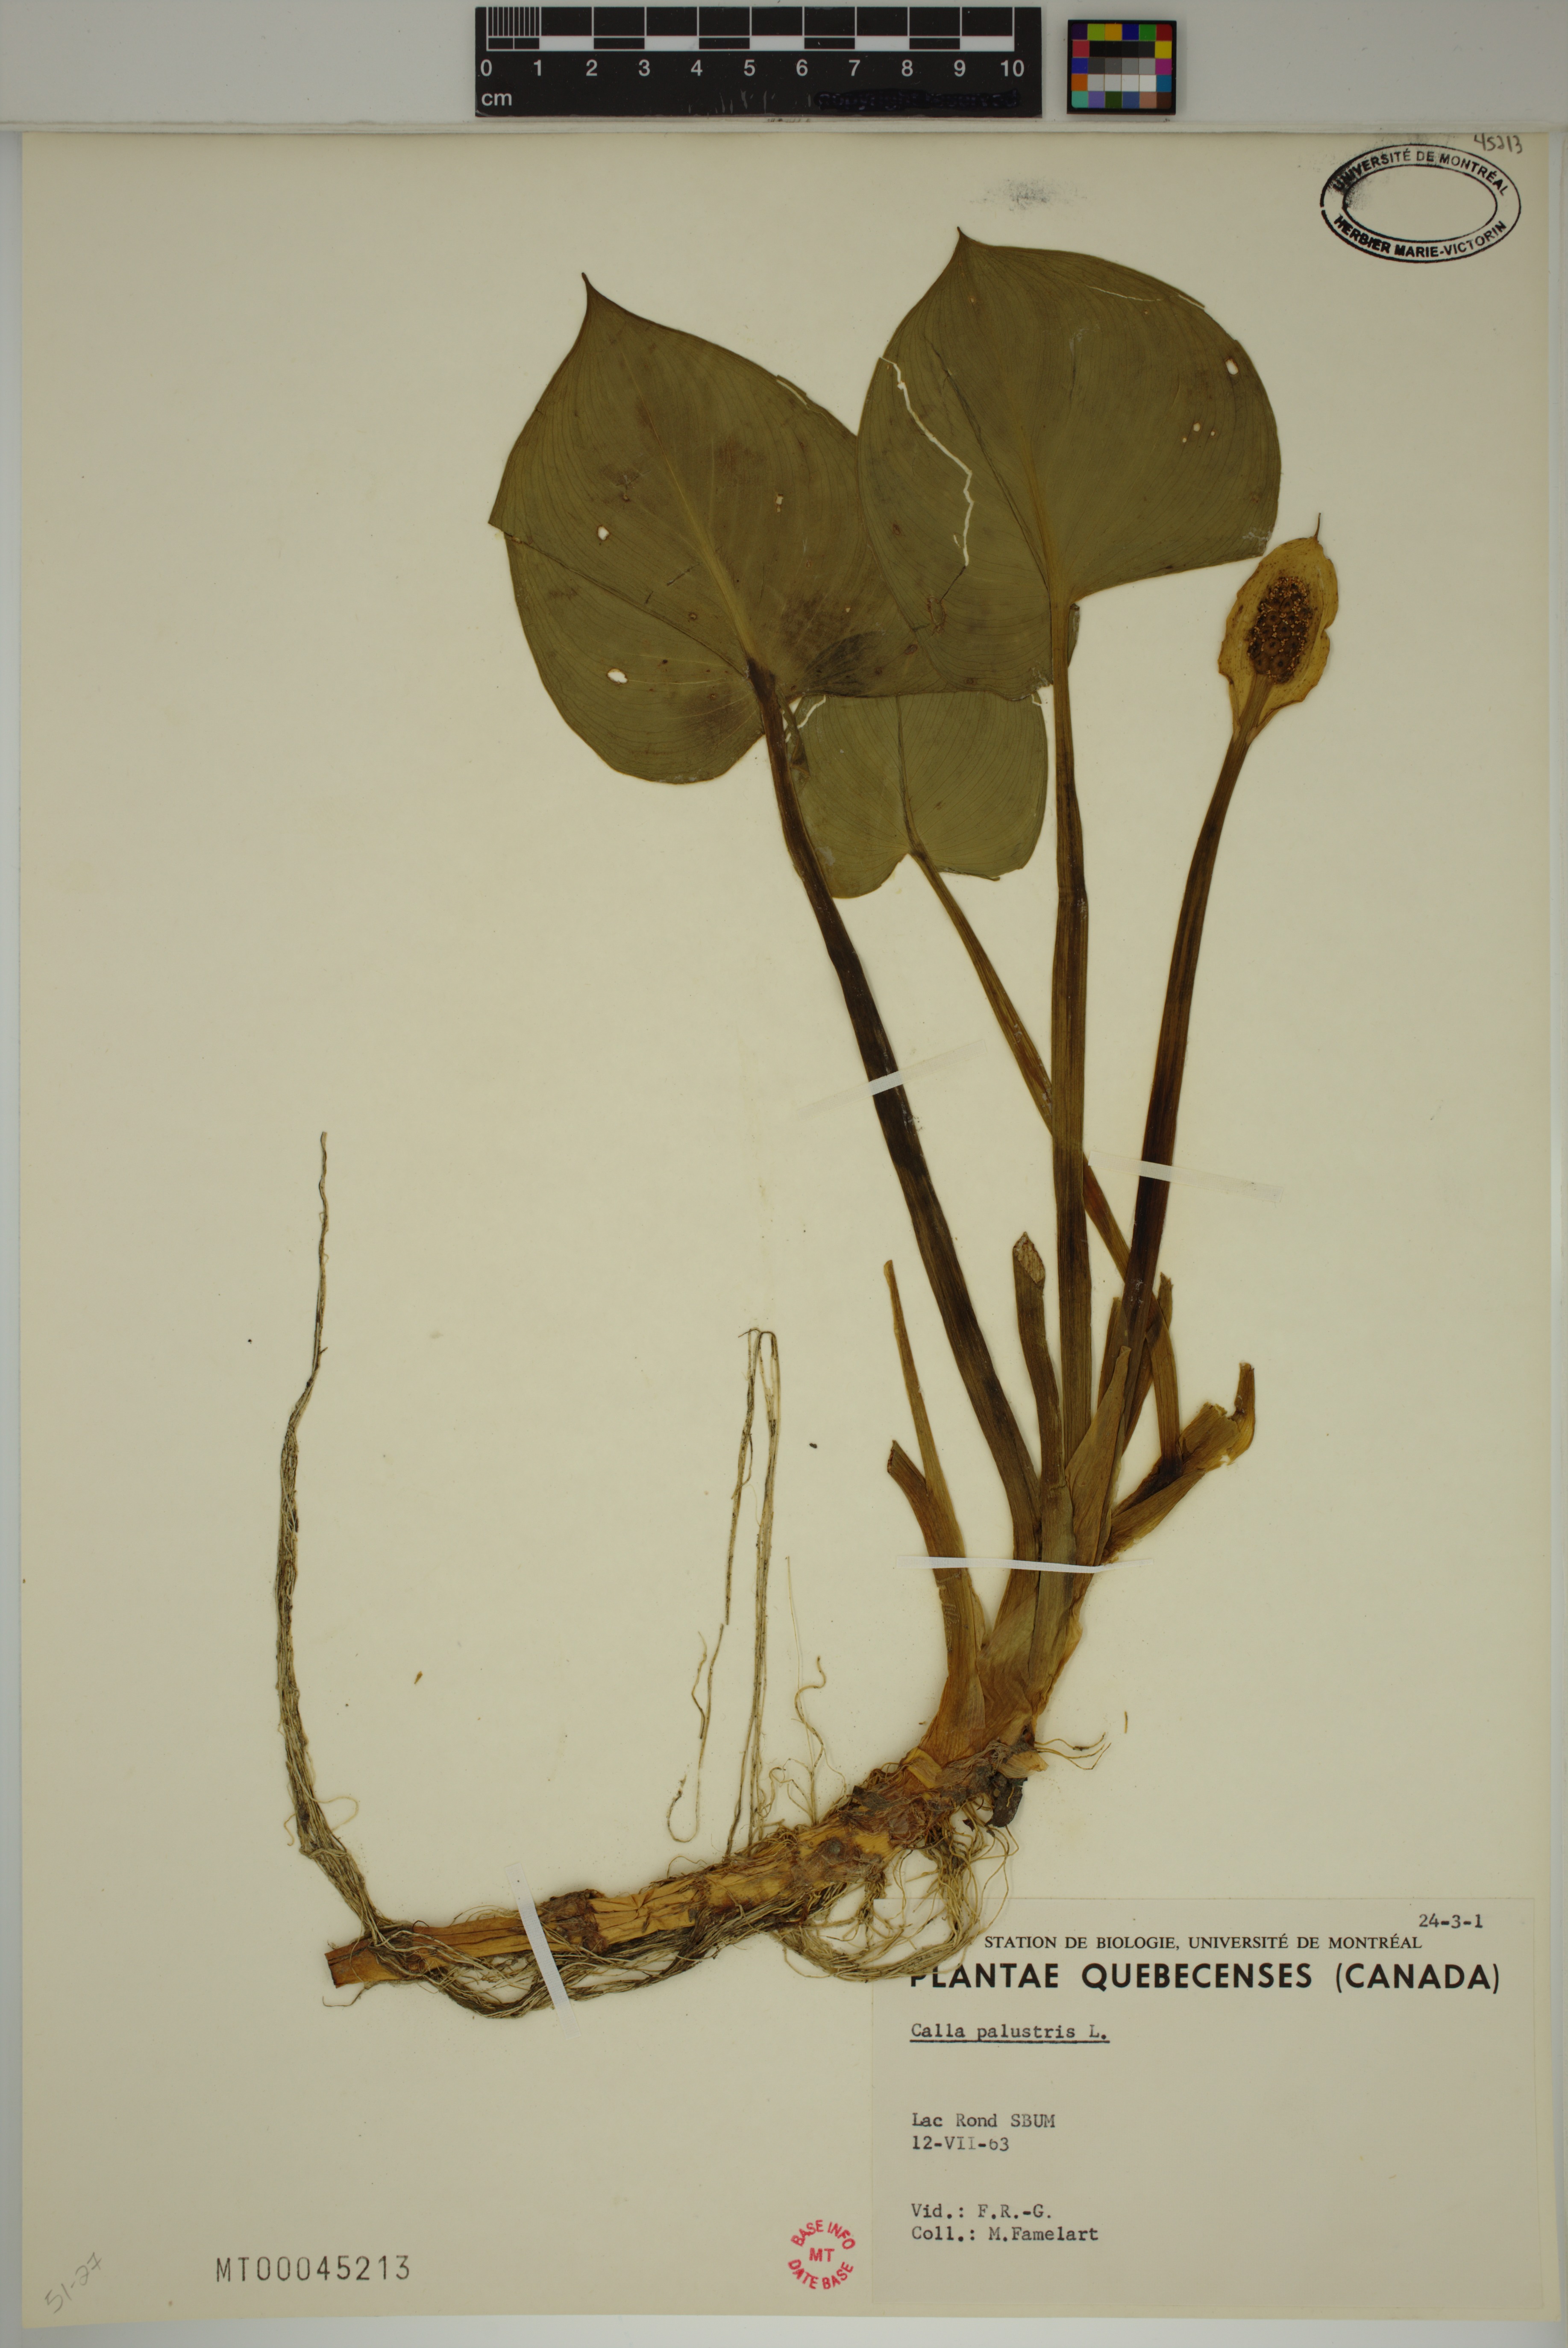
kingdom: Plantae
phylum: Tracheophyta
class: Liliopsida
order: Alismatales
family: Araceae
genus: Calla
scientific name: Calla palustris
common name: Bog arum
